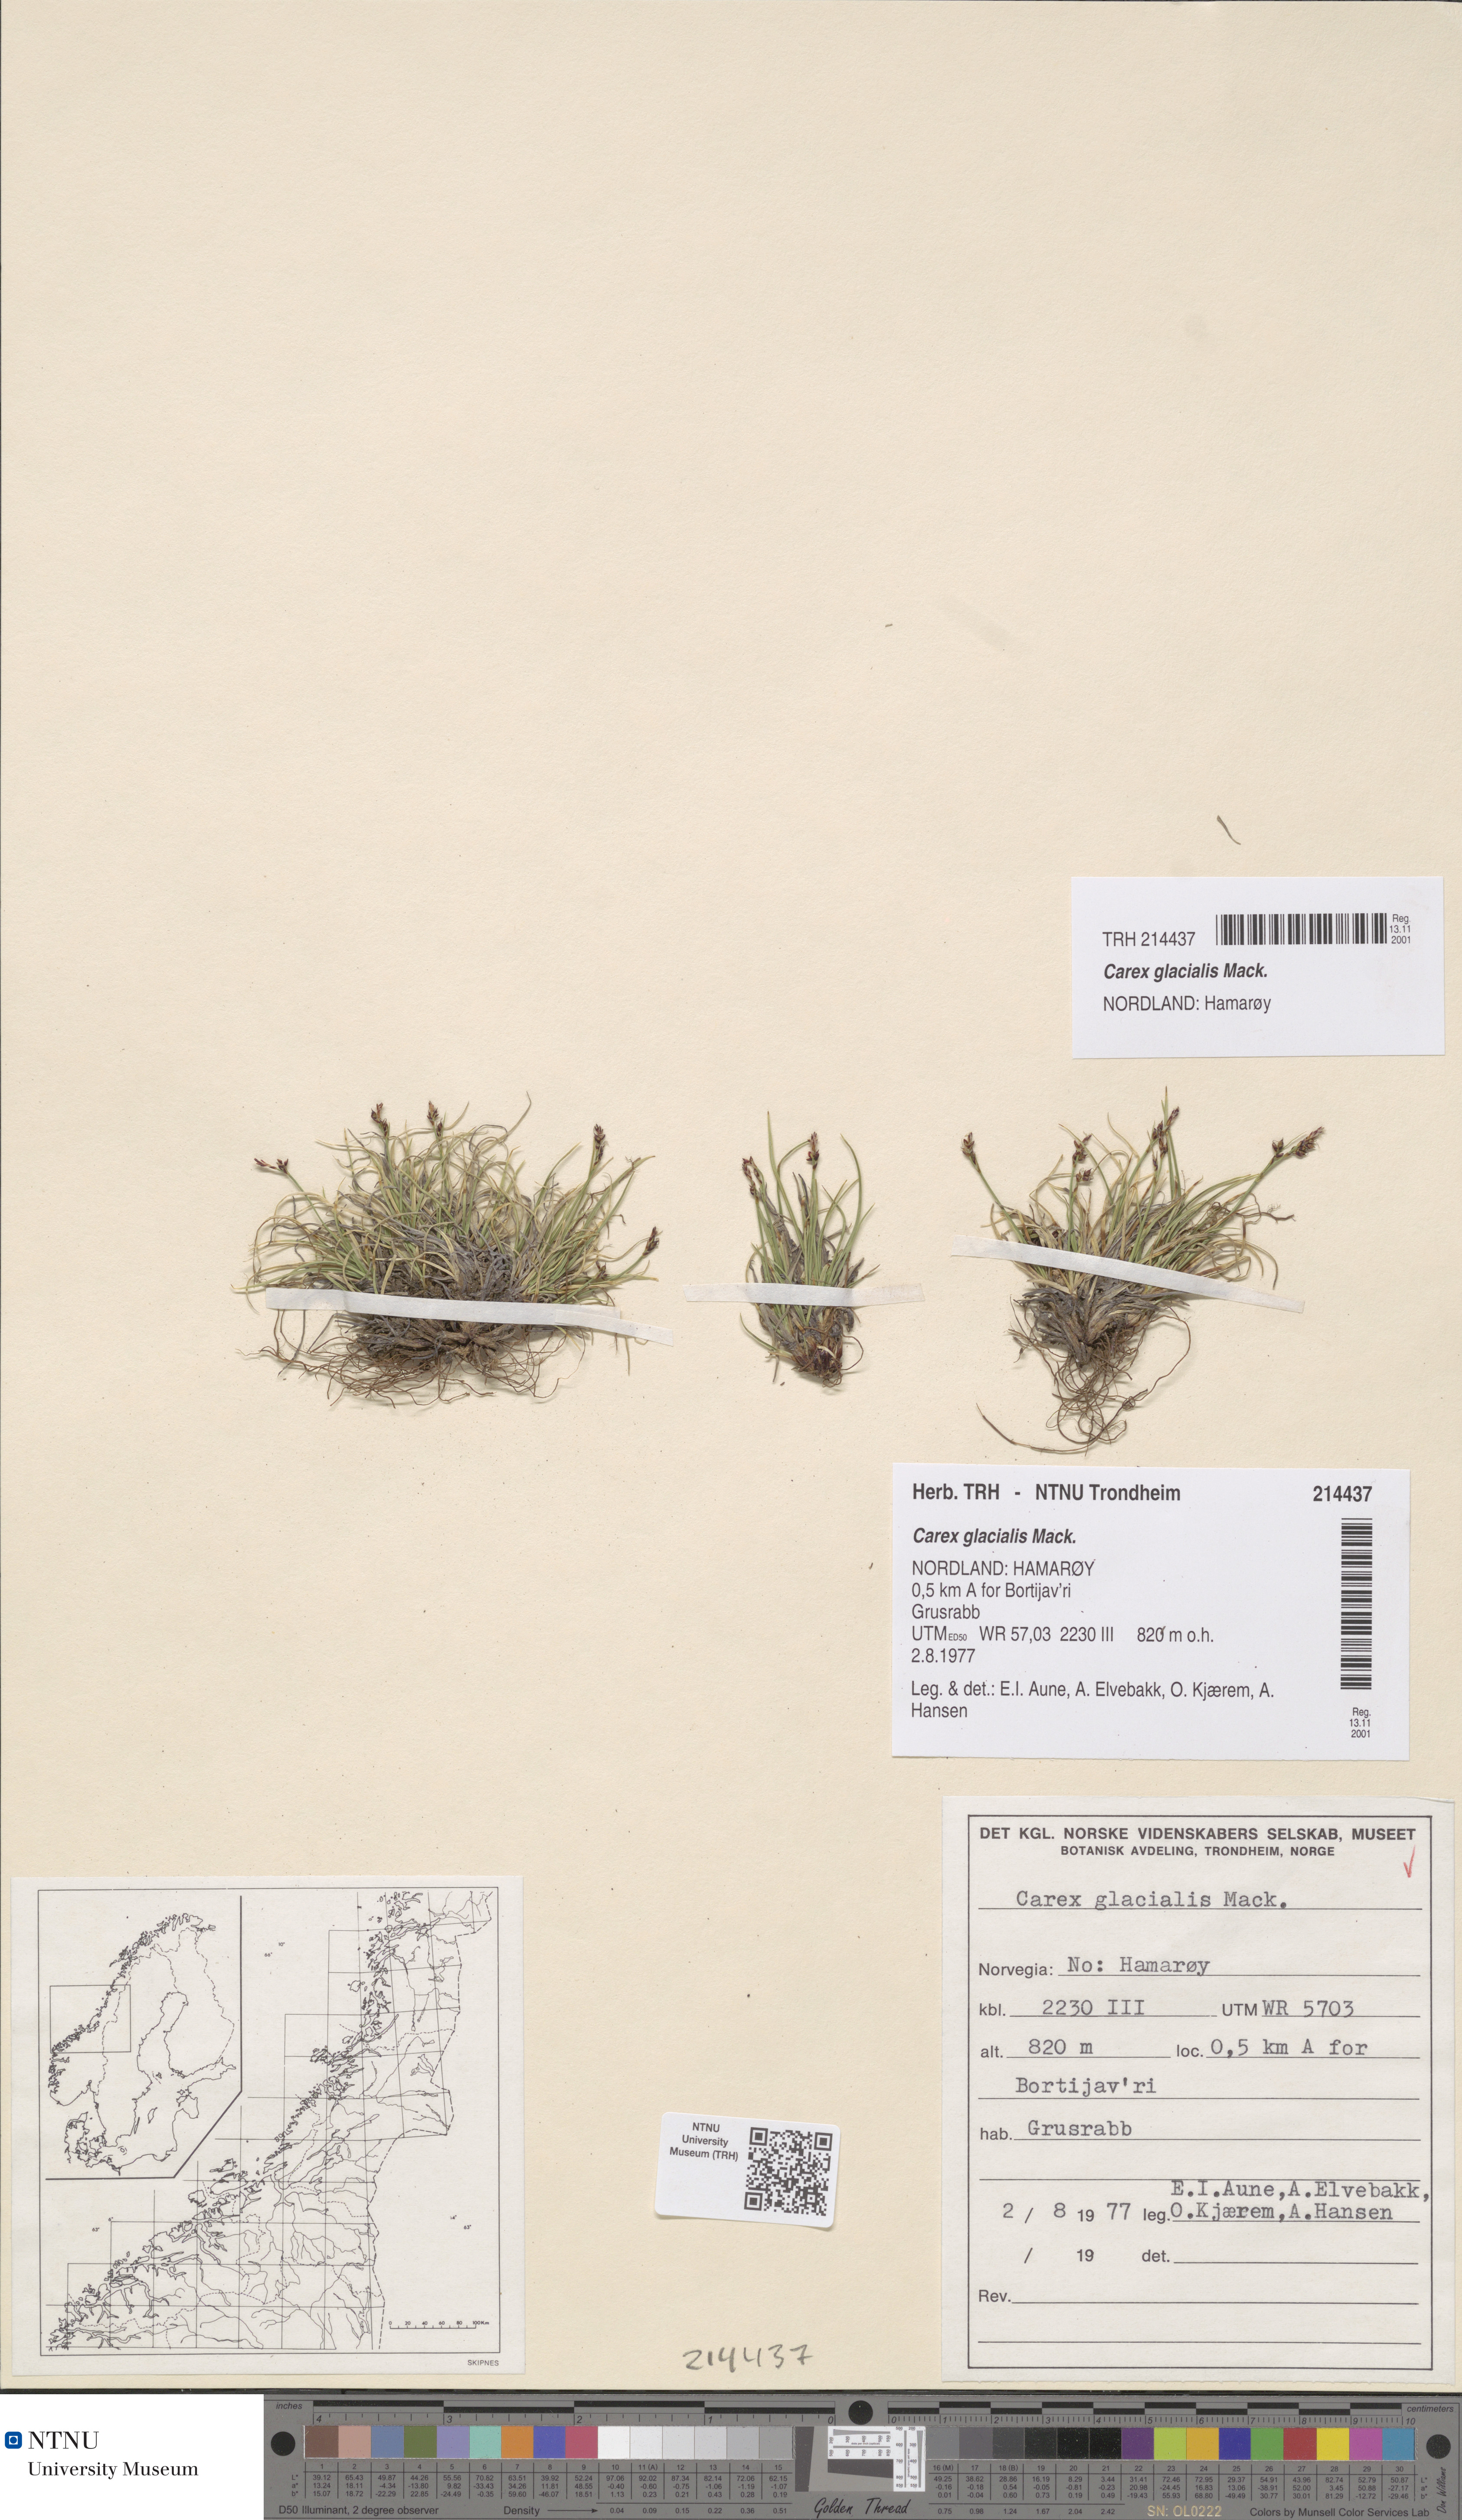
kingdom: Plantae
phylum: Tracheophyta
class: Liliopsida
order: Poales
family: Cyperaceae
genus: Carex
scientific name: Carex glacialis
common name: Newfoundland sedge
